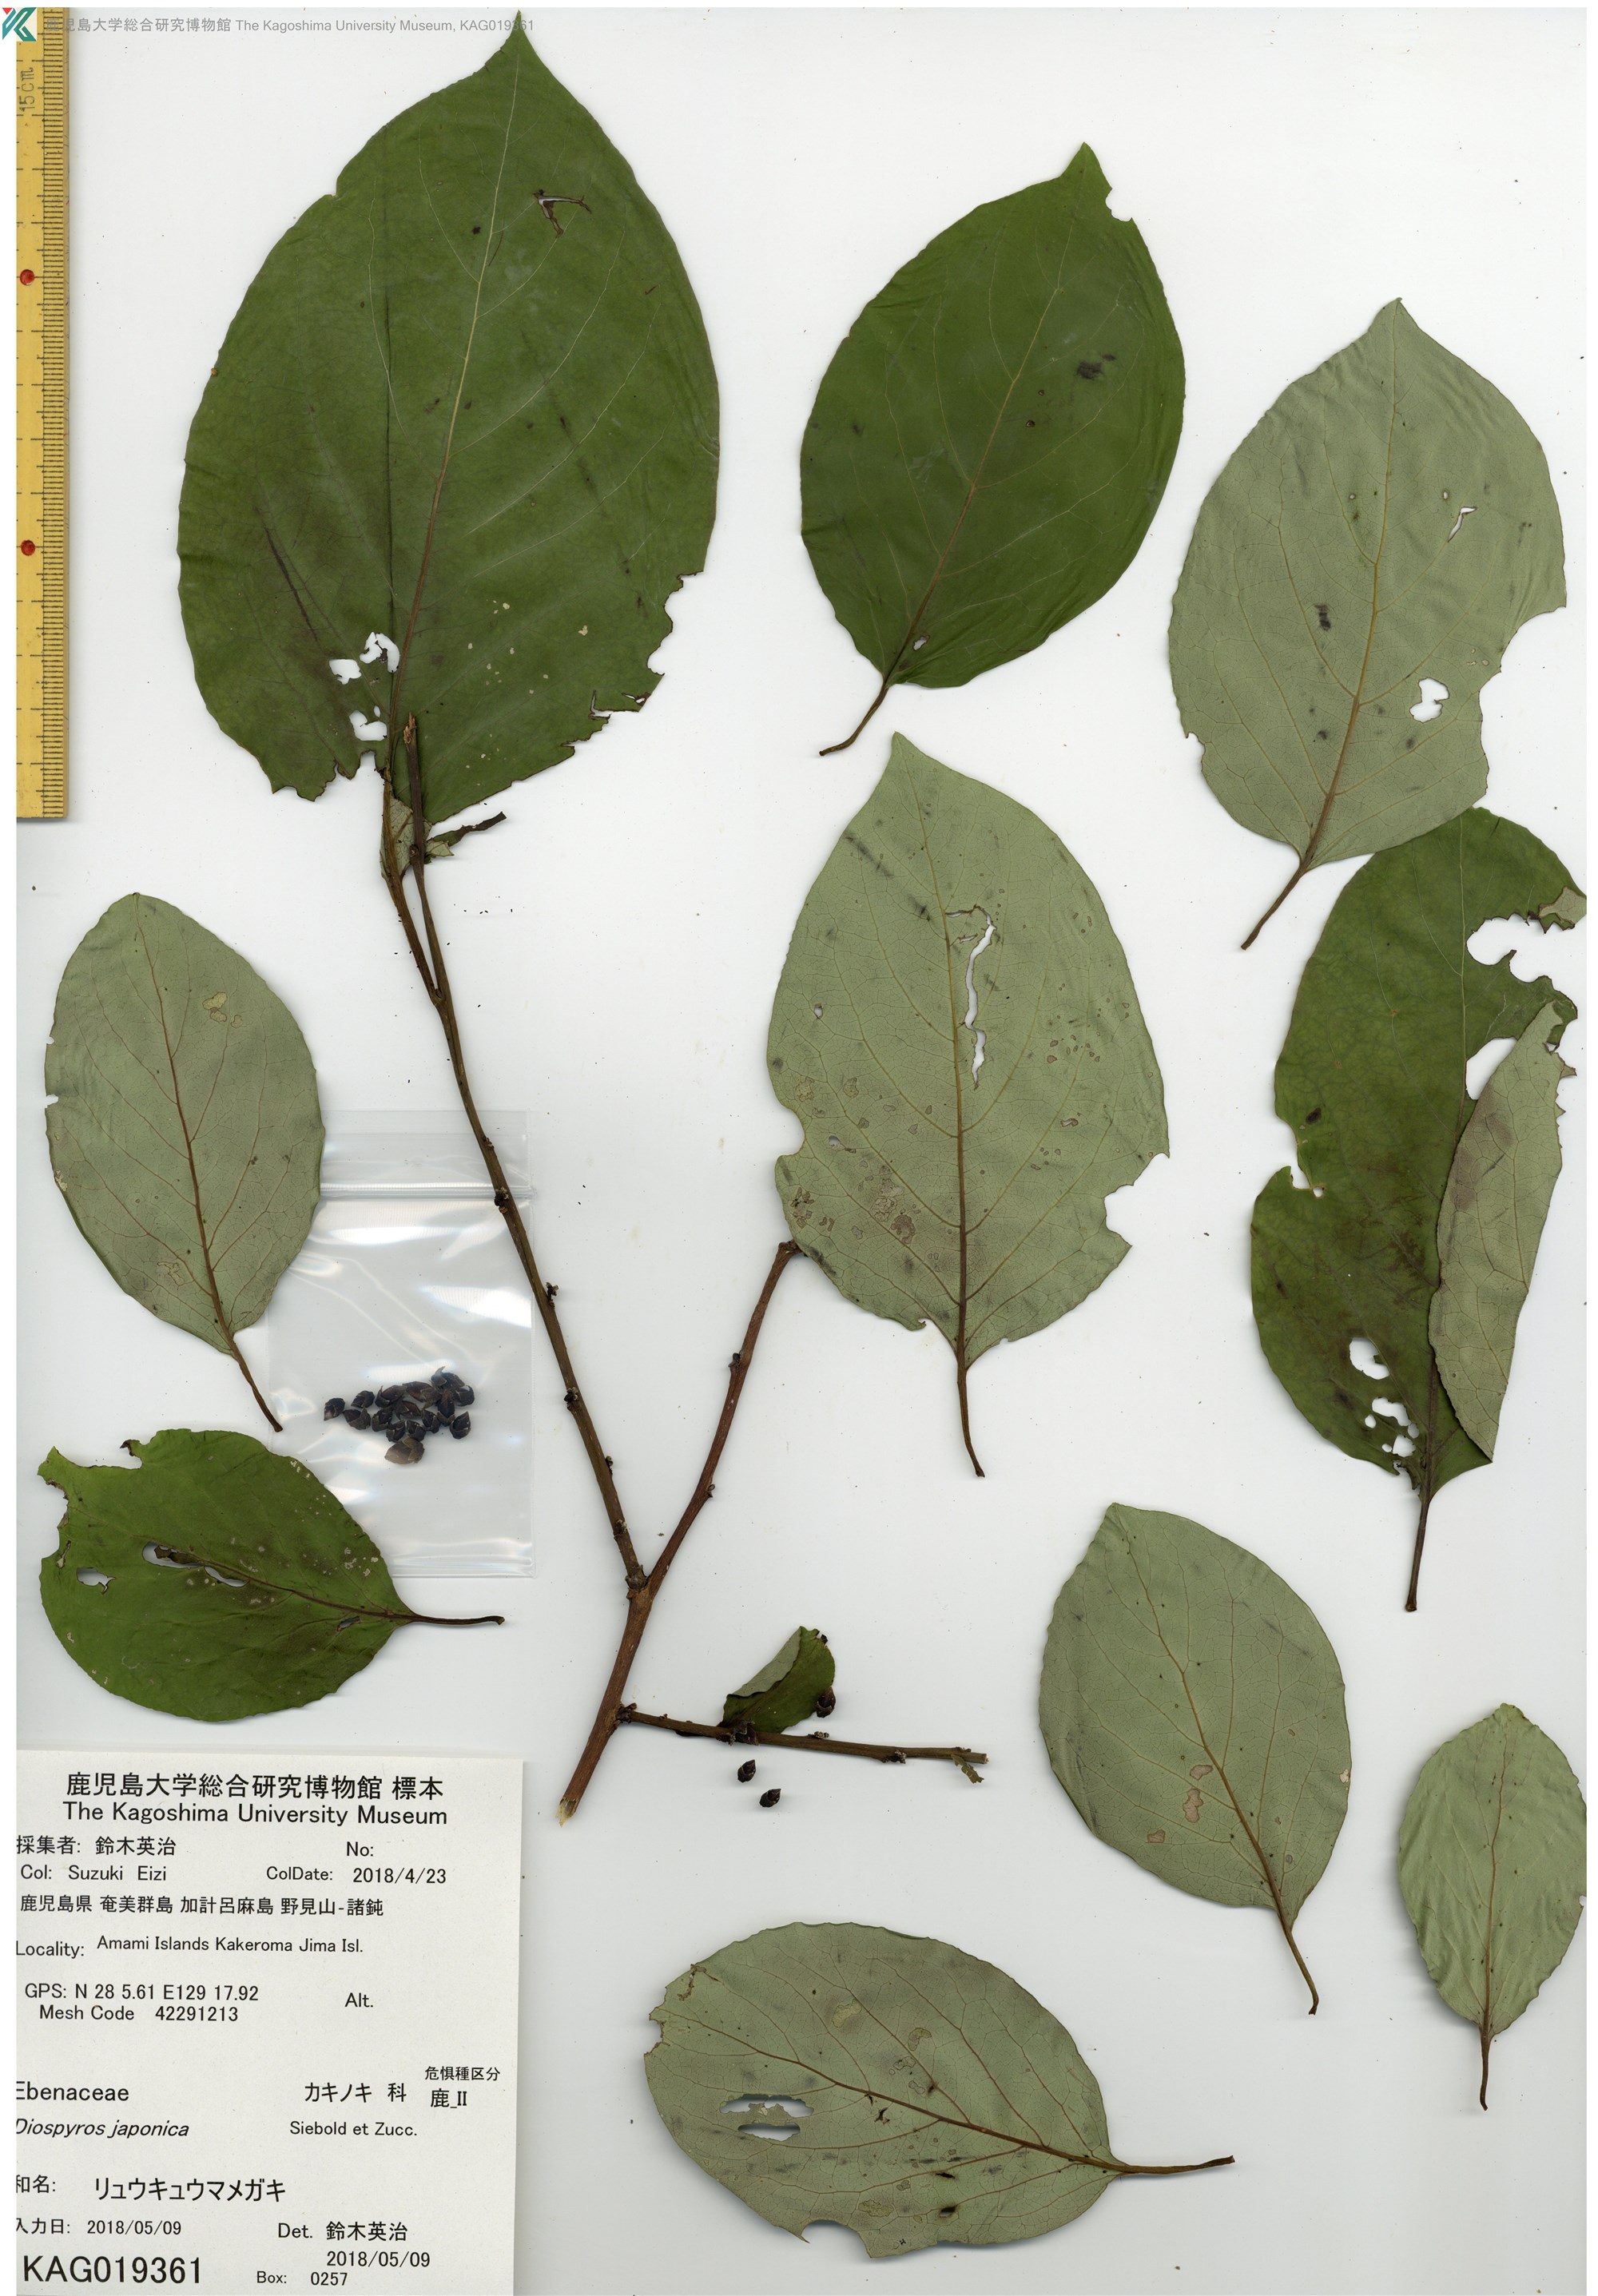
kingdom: Plantae
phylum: Tracheophyta
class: Magnoliopsida
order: Ericales
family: Ebenaceae
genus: Diospyros
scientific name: Diospyros japonica
